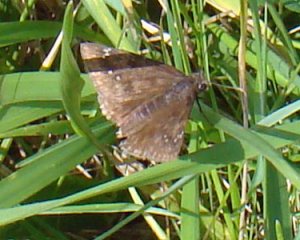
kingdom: Animalia
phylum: Arthropoda
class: Insecta
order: Lepidoptera
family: Hesperiidae
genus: Gesta
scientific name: Gesta
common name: Wild Indigo Duskywing
